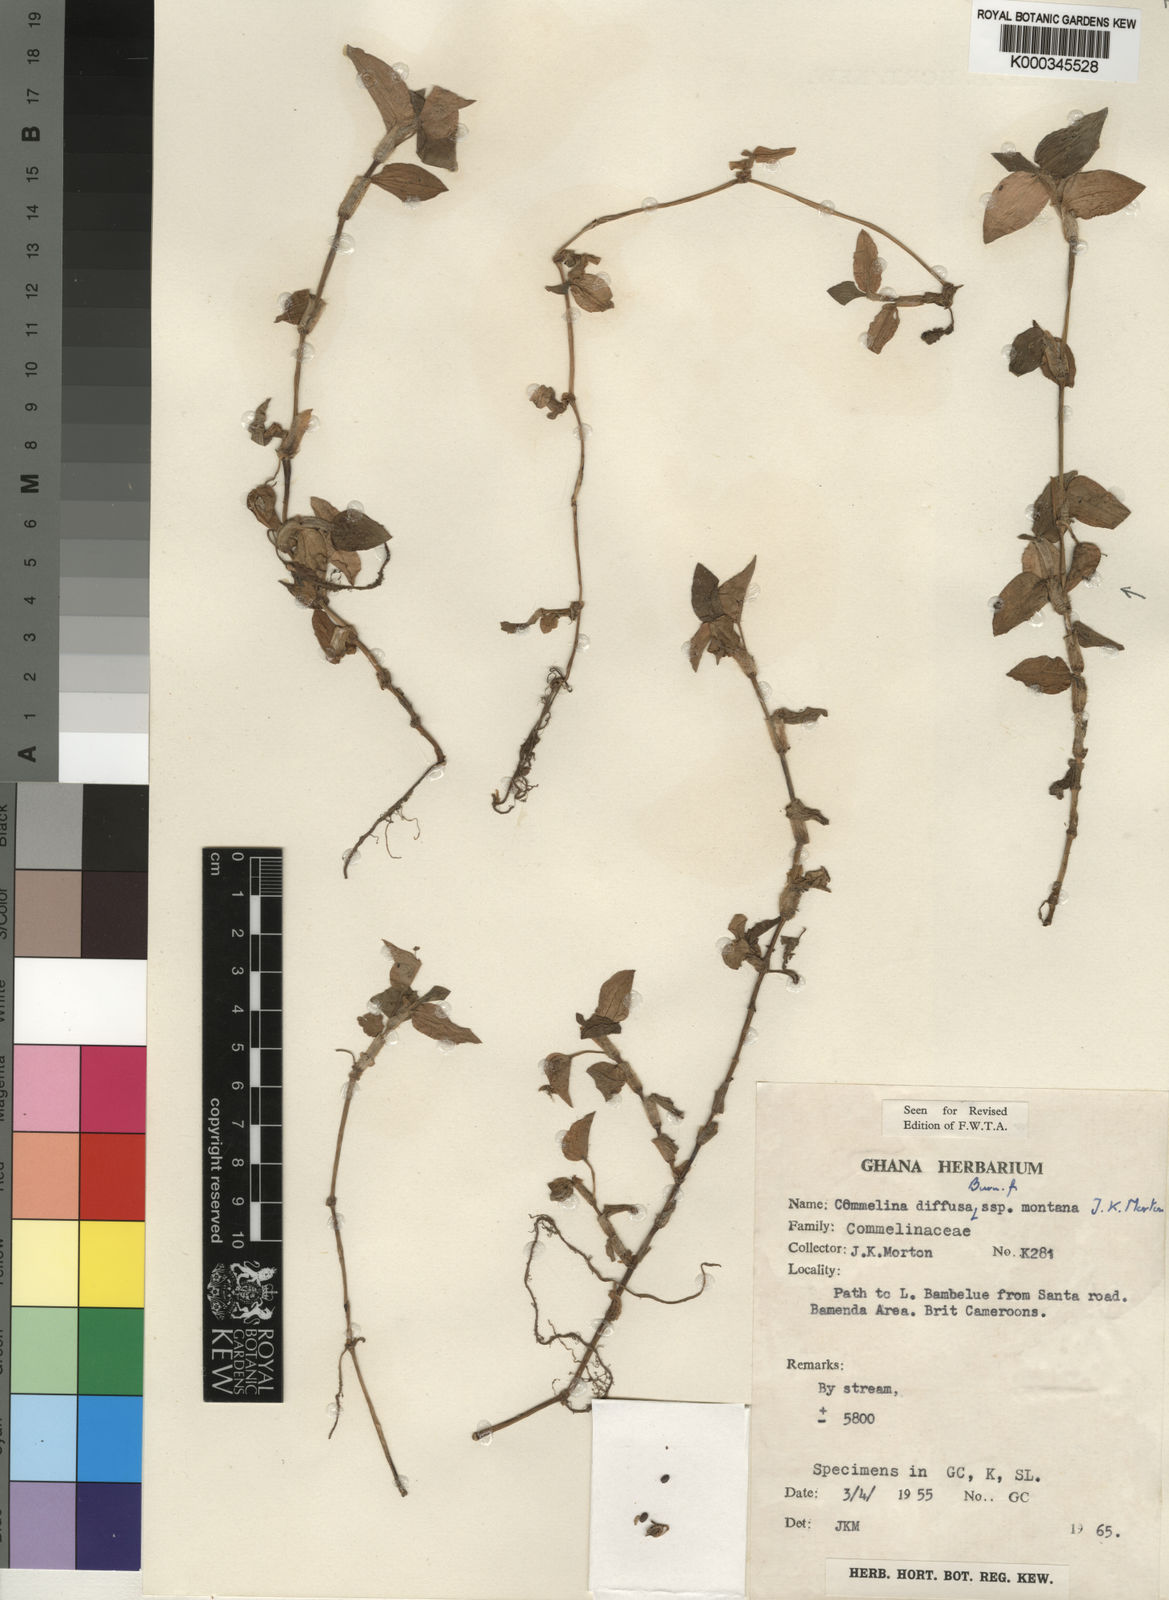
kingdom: Plantae
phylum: Tracheophyta
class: Liliopsida
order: Commelinales
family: Commelinaceae
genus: Commelina
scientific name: Commelina diffusa
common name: Climbing dayflower
